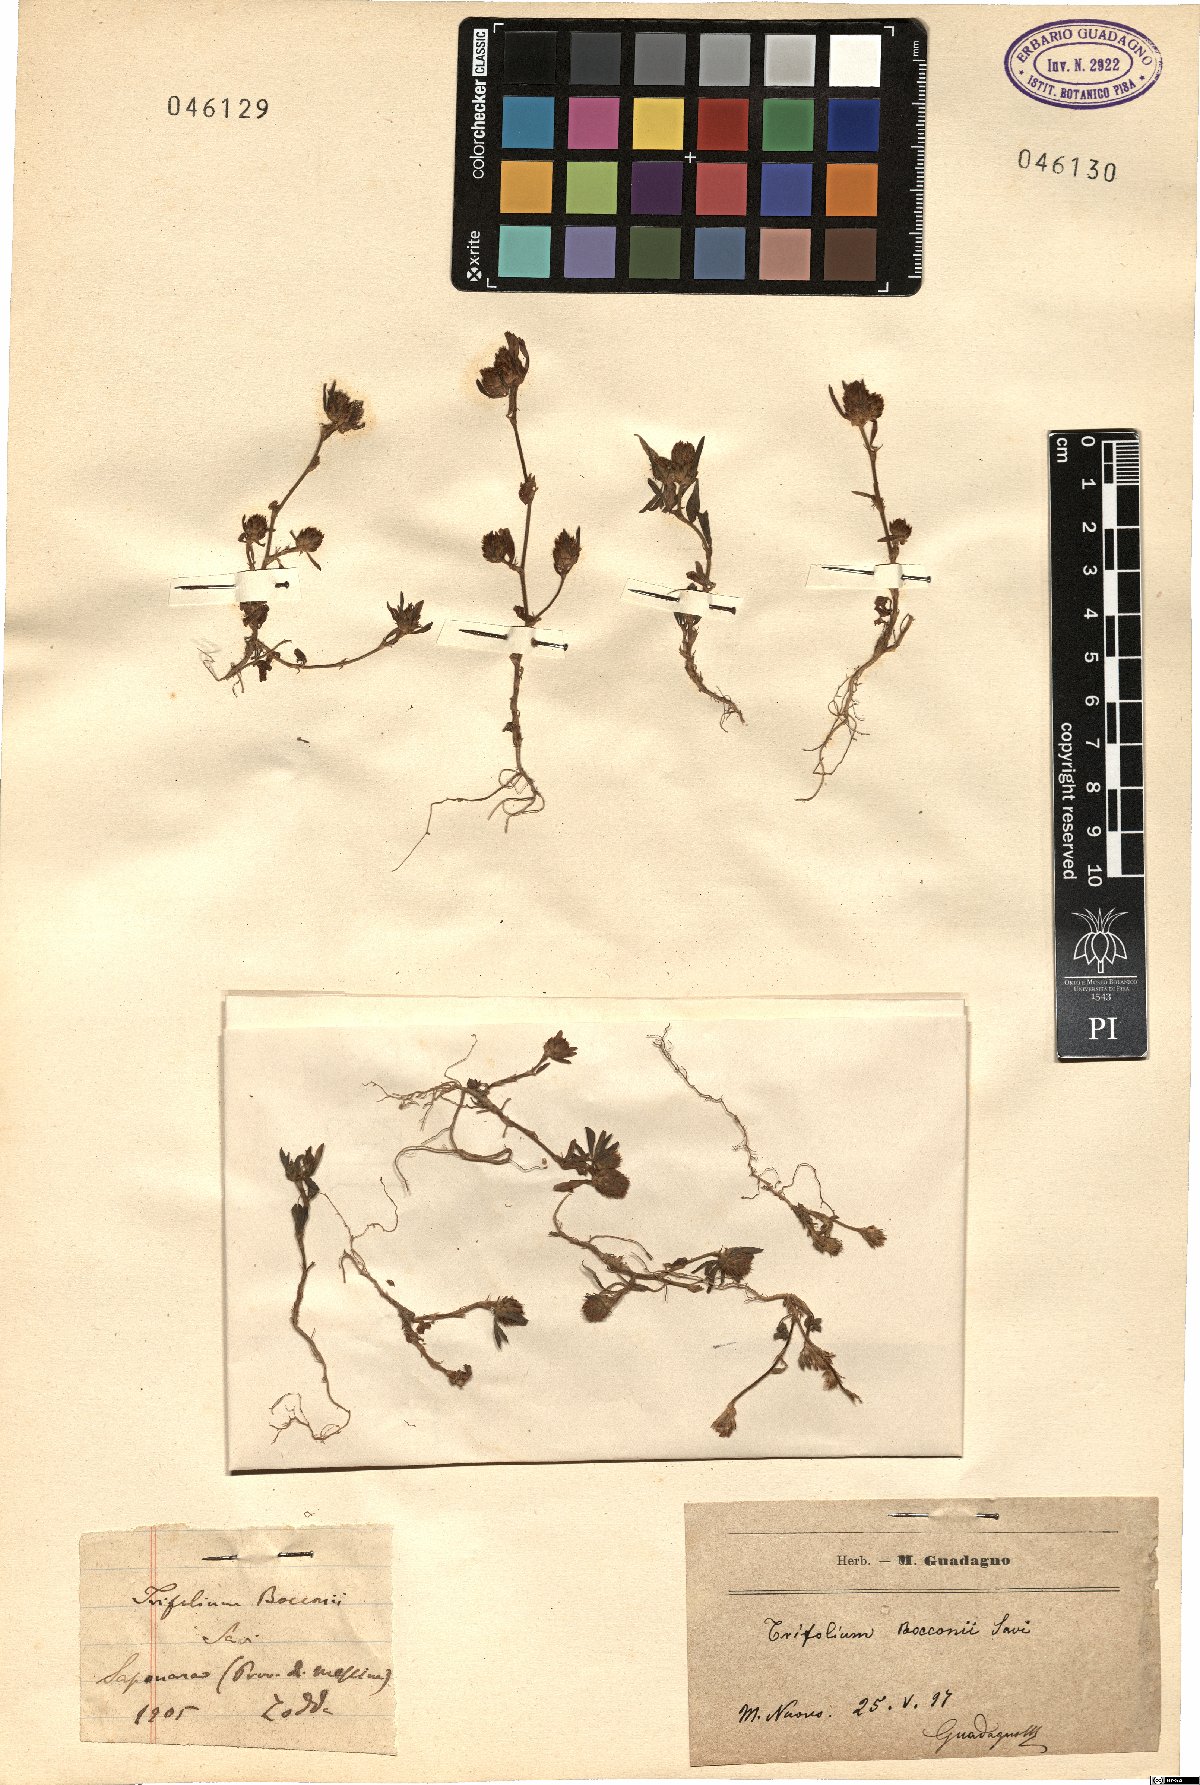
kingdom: Plantae
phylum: Tracheophyta
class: Magnoliopsida
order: Fabales
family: Fabaceae
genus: Trifolium
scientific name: Trifolium bocconei
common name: Twin-headed clover
